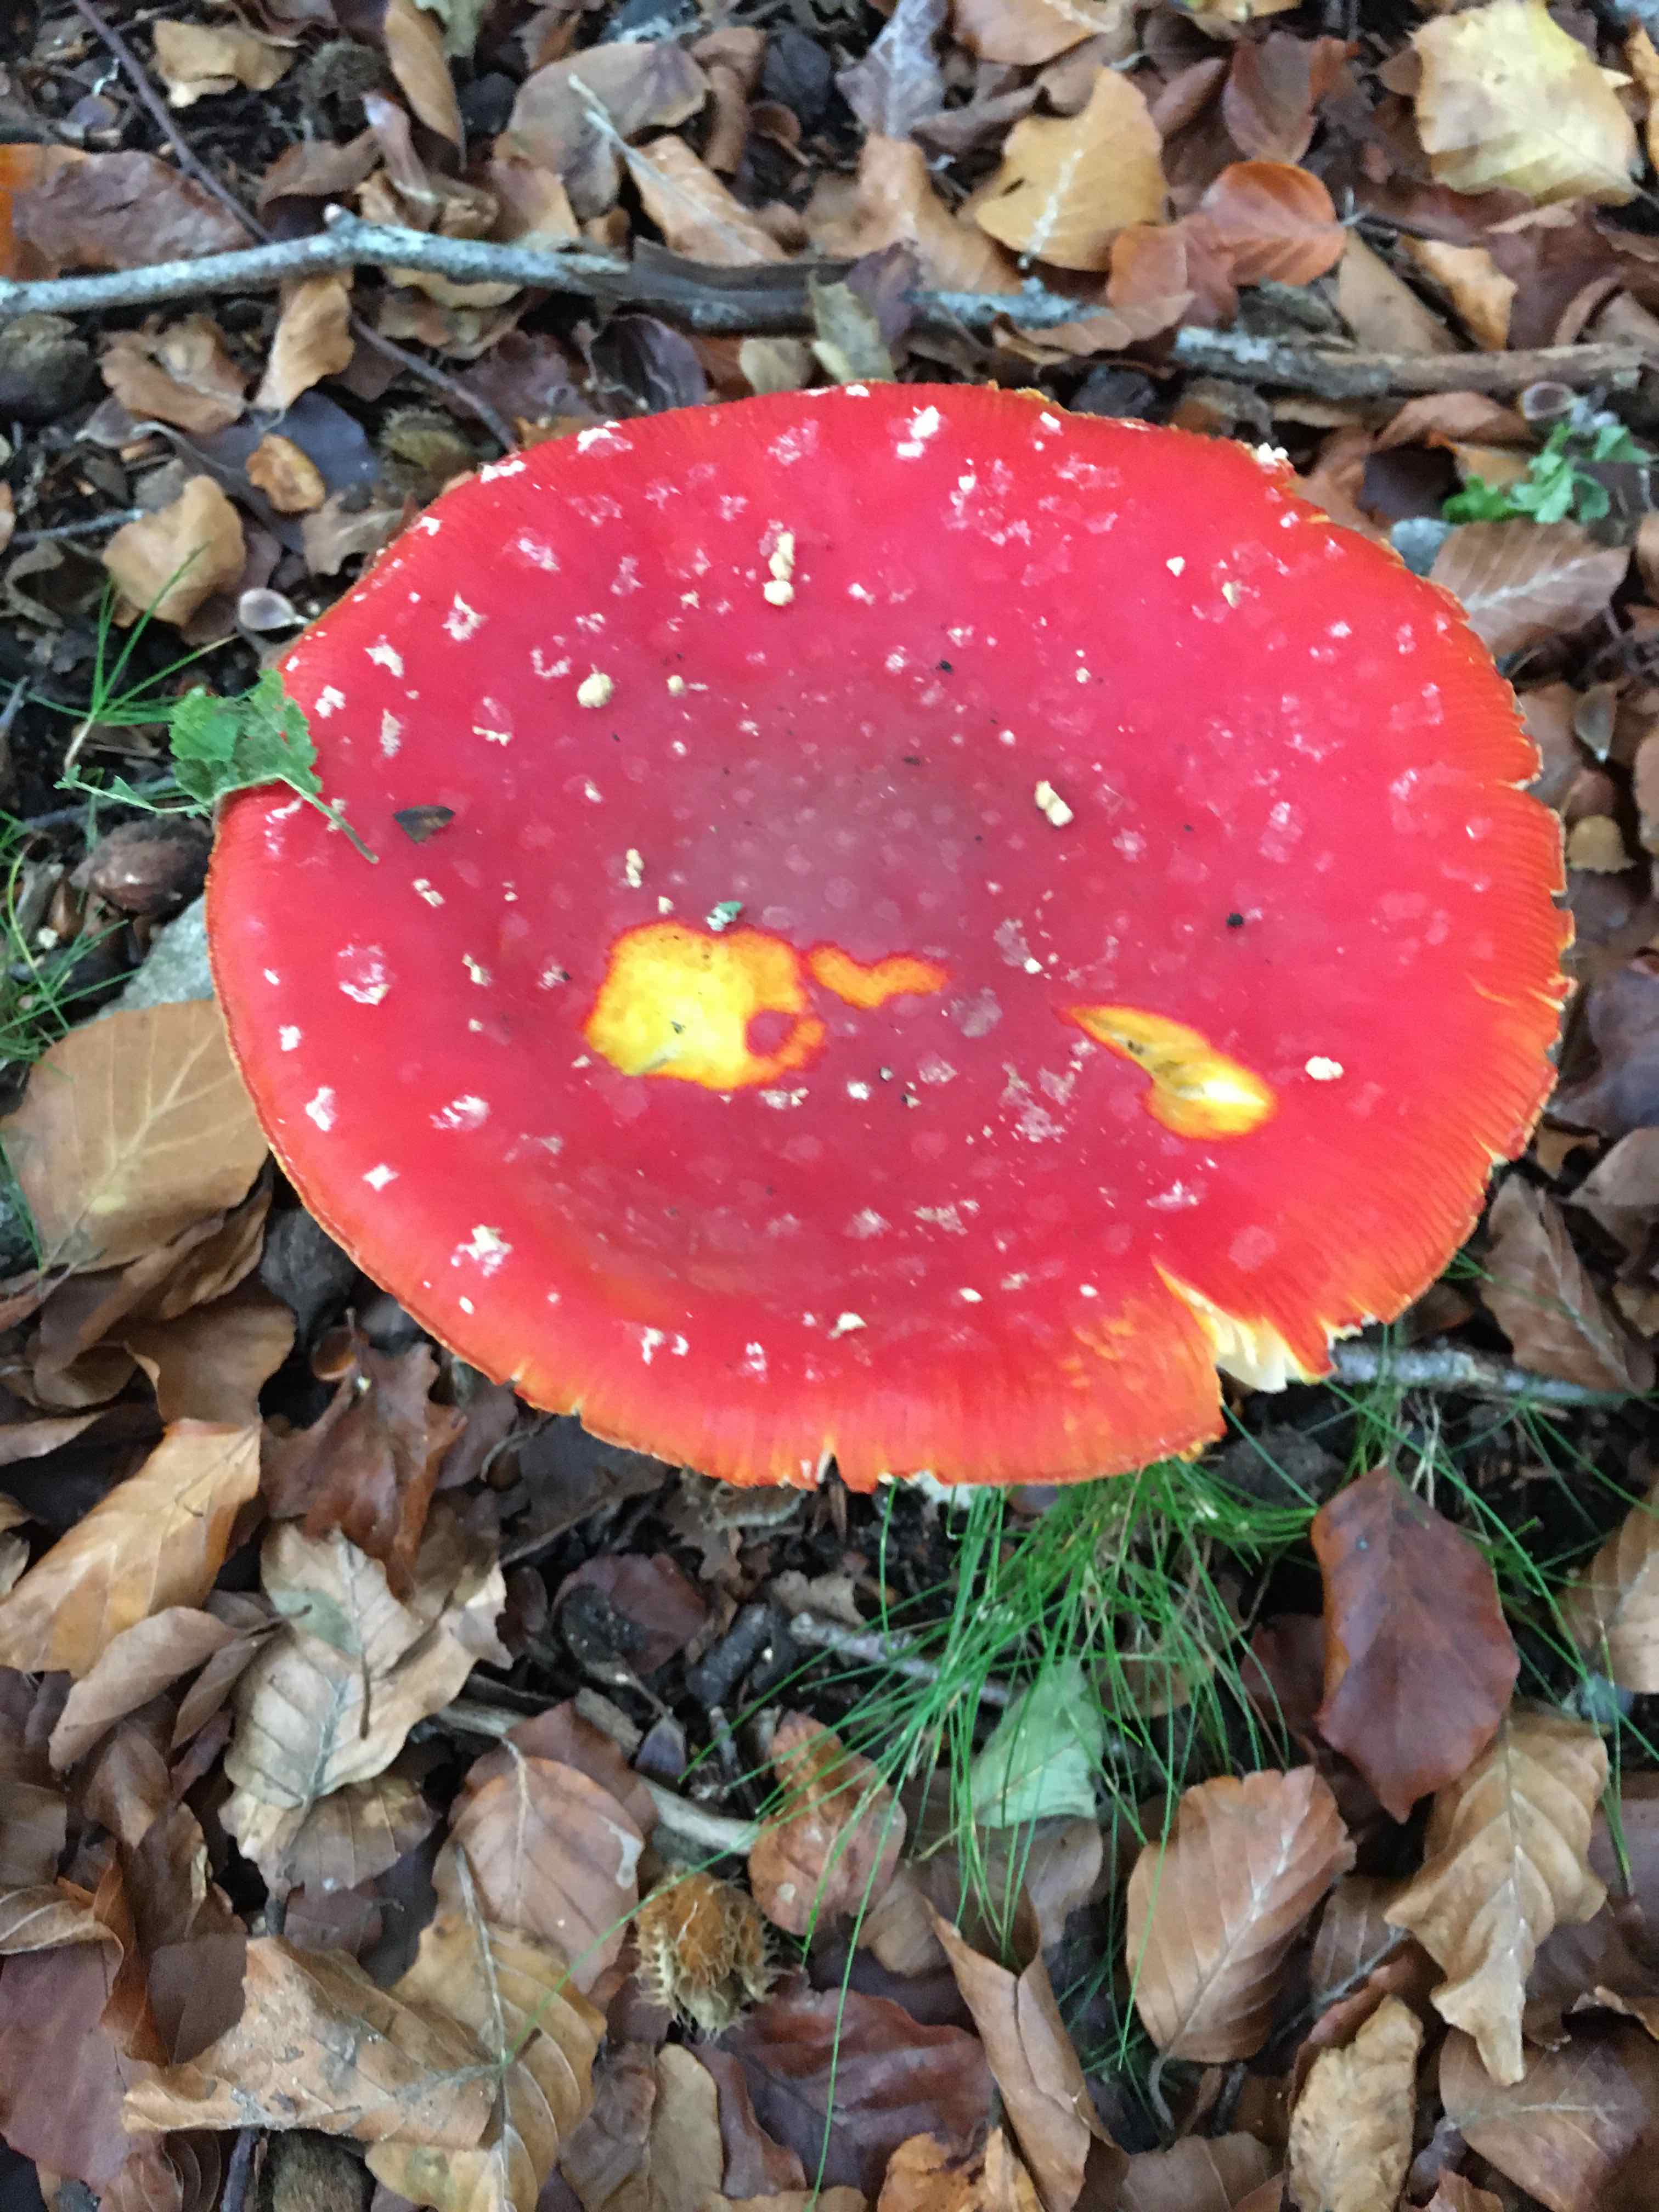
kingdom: Fungi
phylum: Basidiomycota
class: Agaricomycetes
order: Agaricales
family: Amanitaceae
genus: Amanita
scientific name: Amanita muscaria
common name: rød fluesvamp
